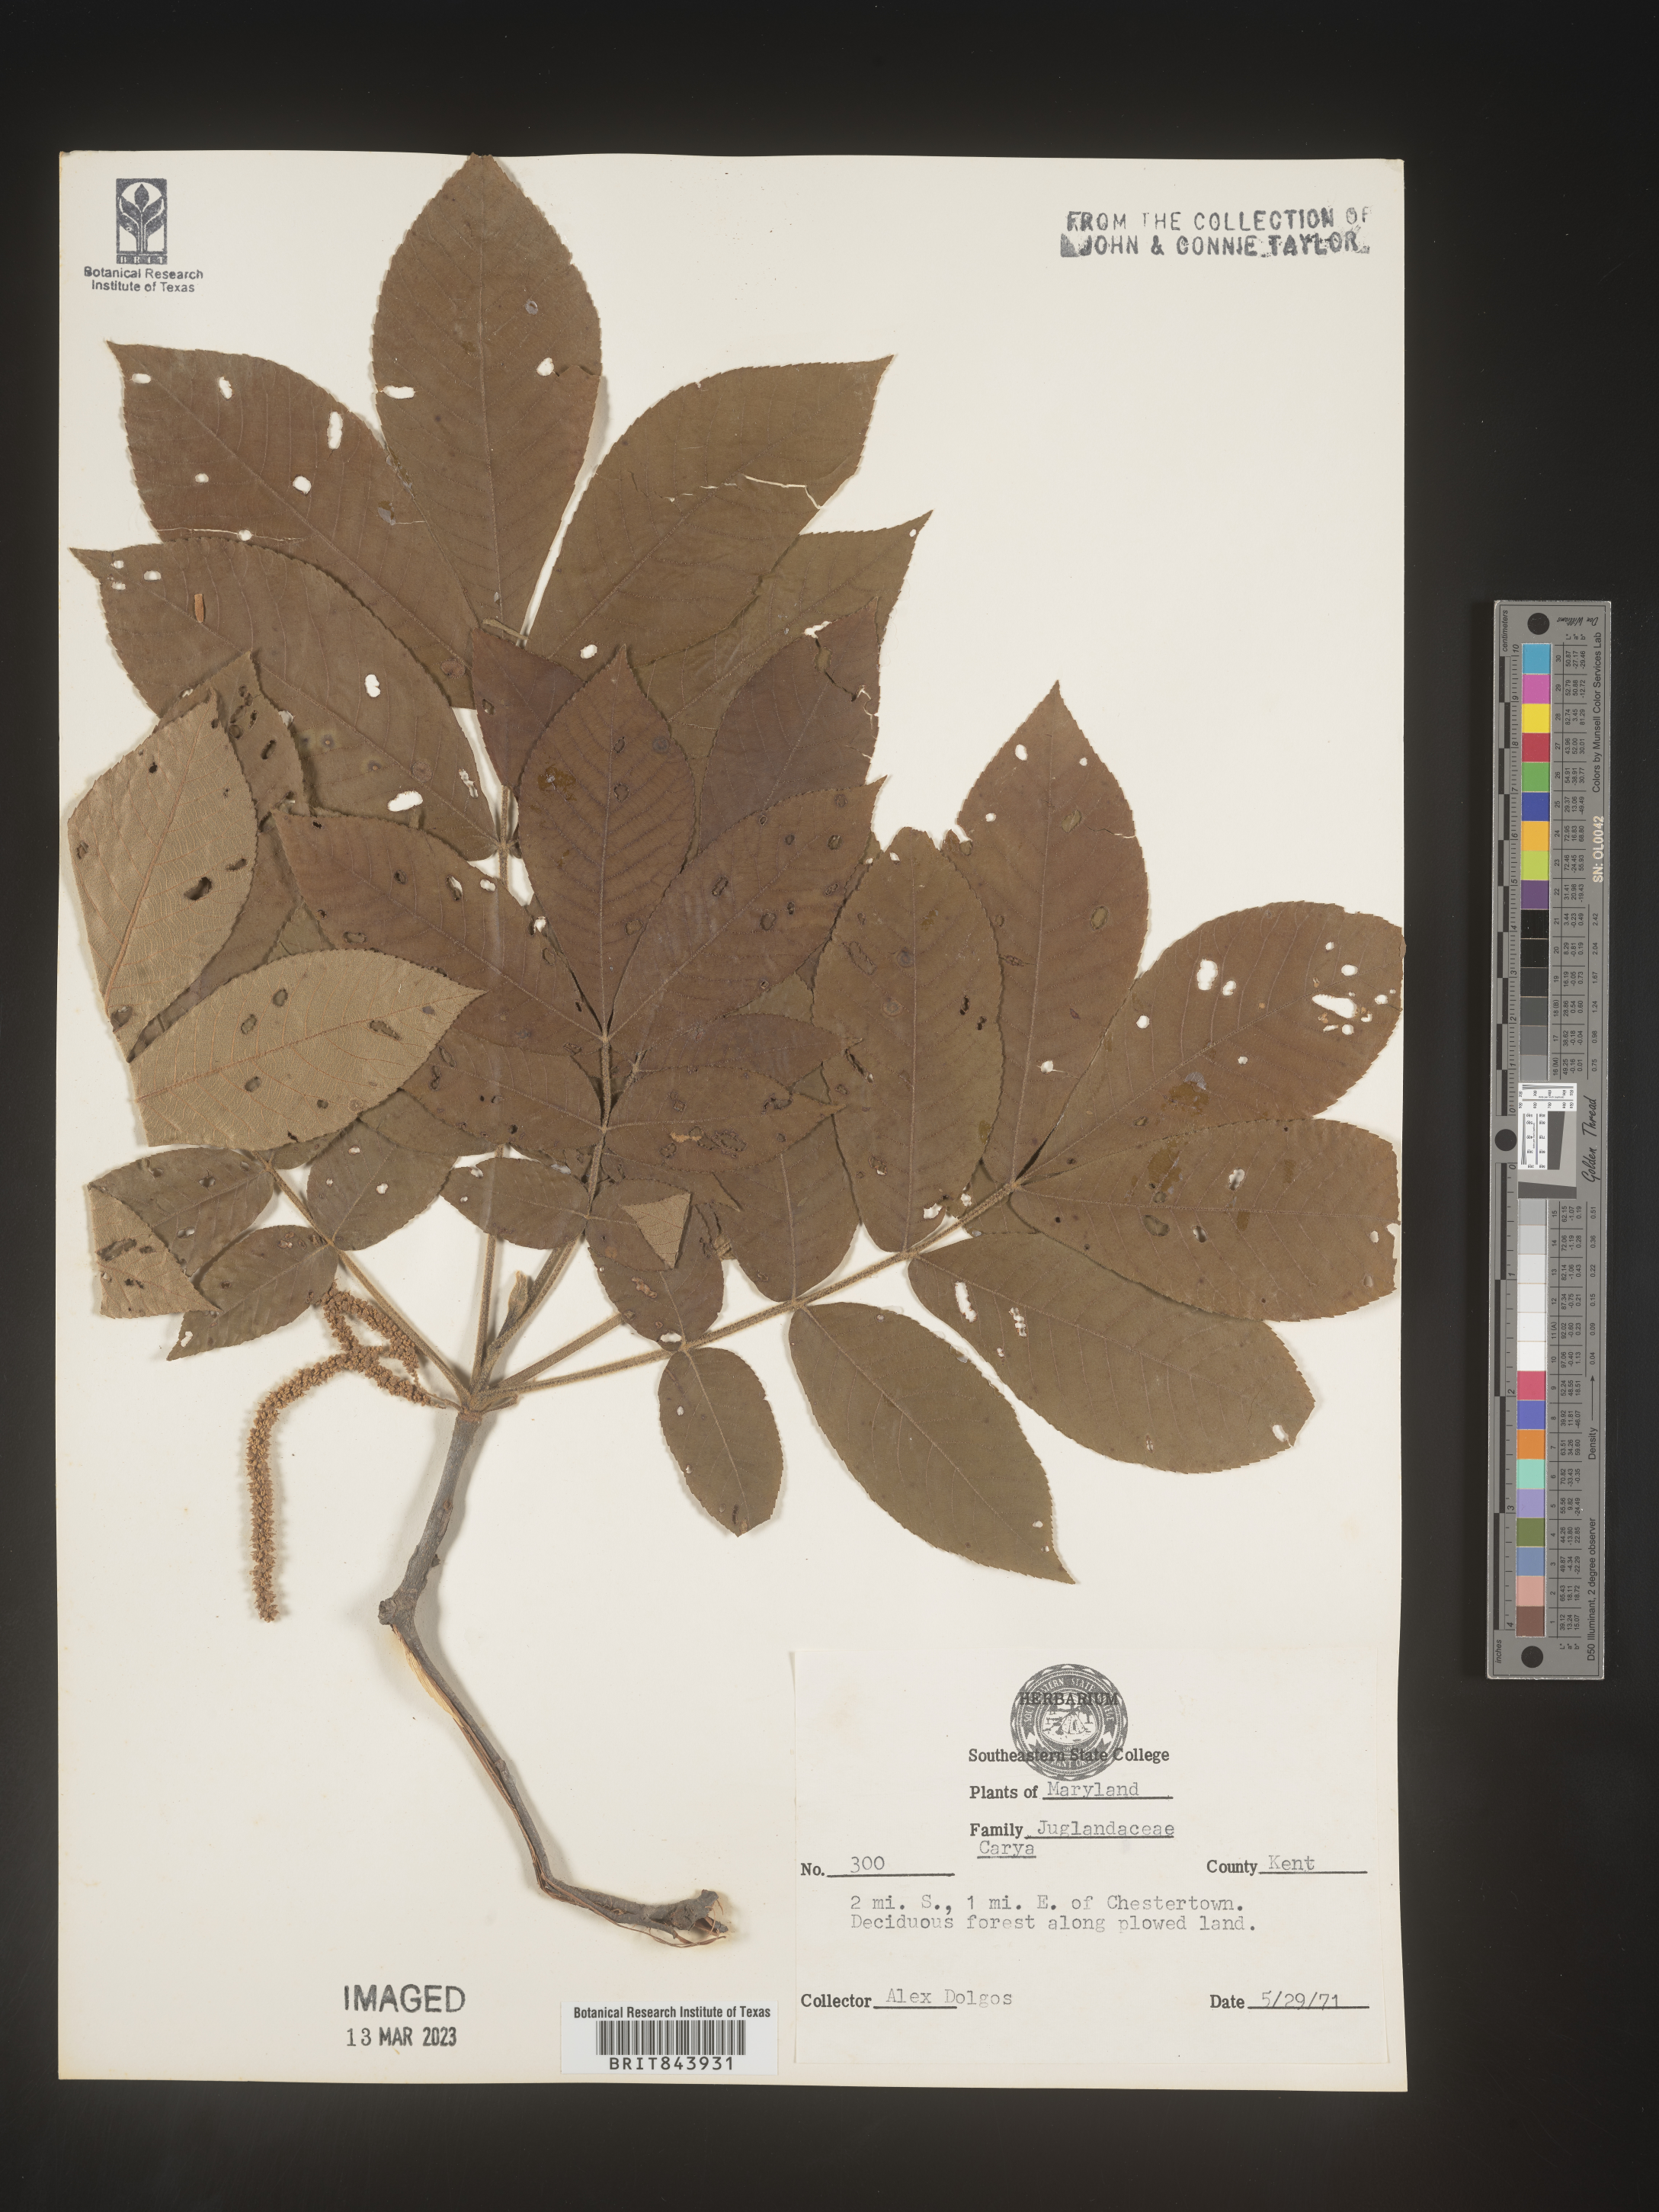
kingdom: Plantae
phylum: Tracheophyta
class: Magnoliopsida
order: Fagales
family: Juglandaceae
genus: Carya
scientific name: Carya
